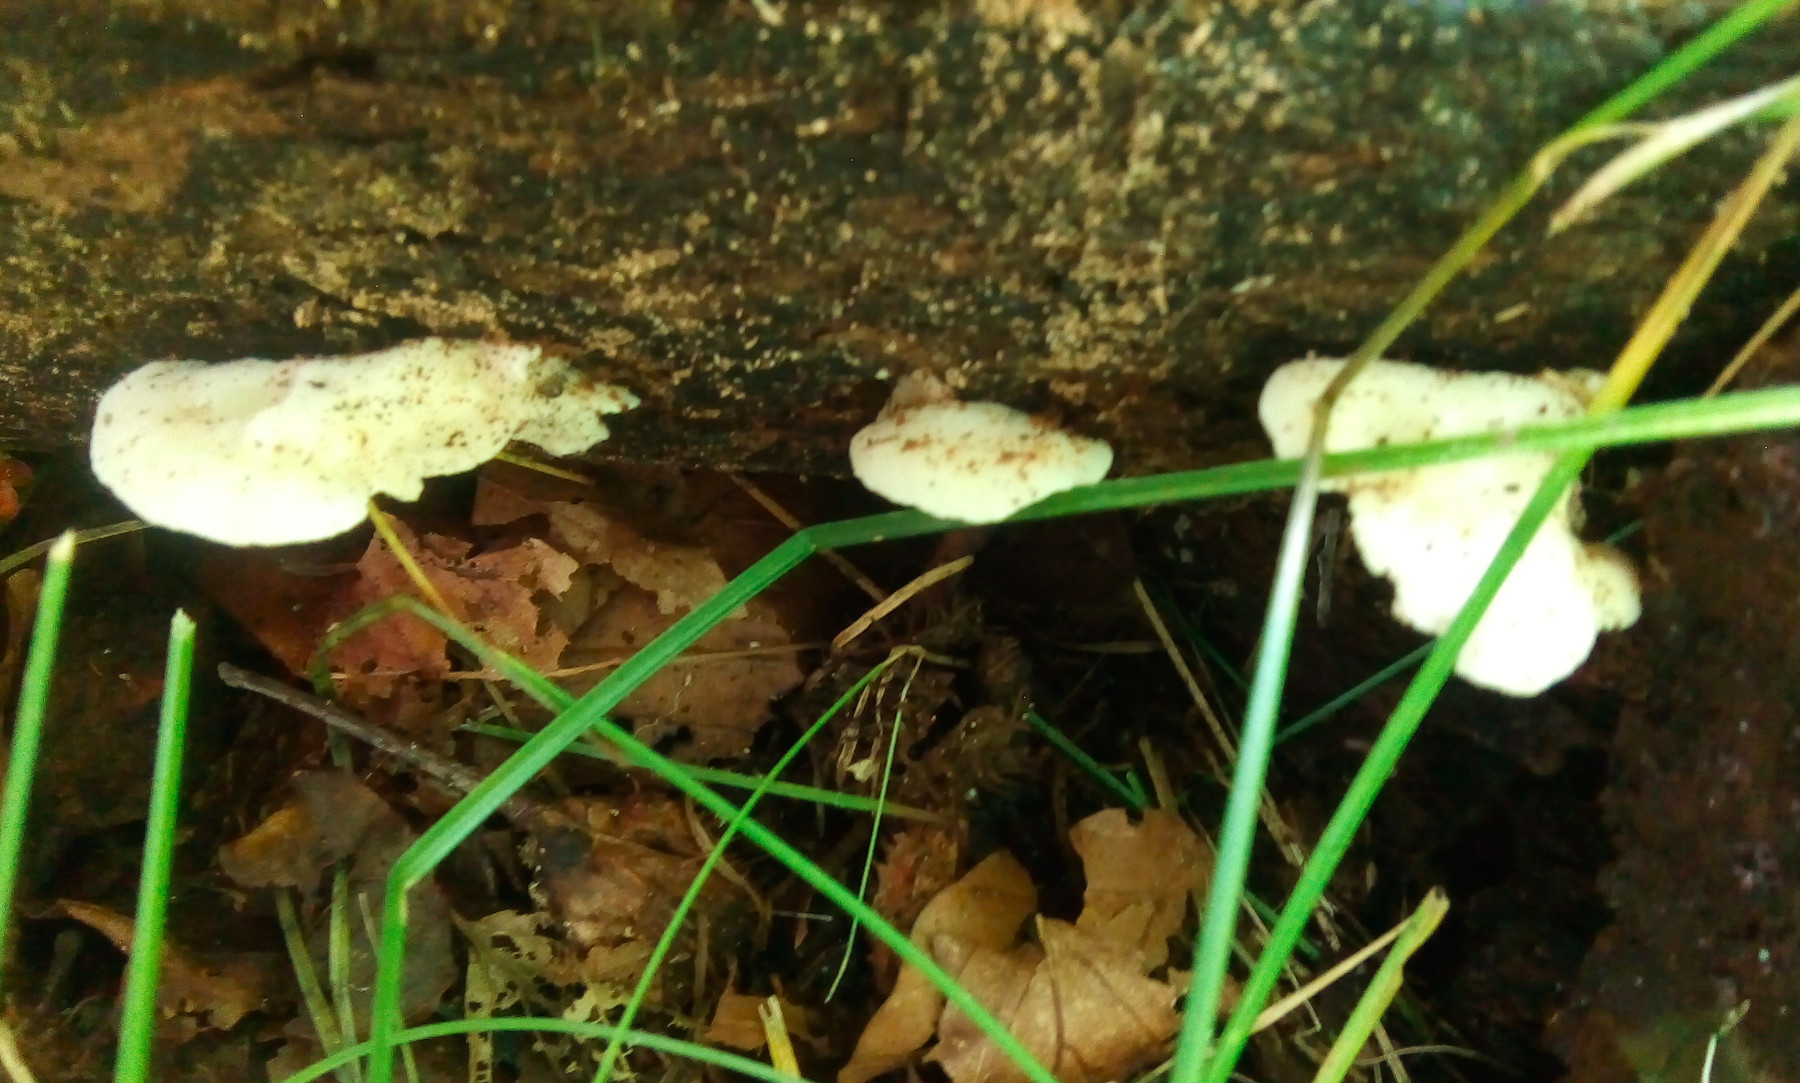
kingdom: Fungi
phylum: Basidiomycota
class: Agaricomycetes
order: Polyporales
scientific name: Polyporales
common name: poresvampordenen
